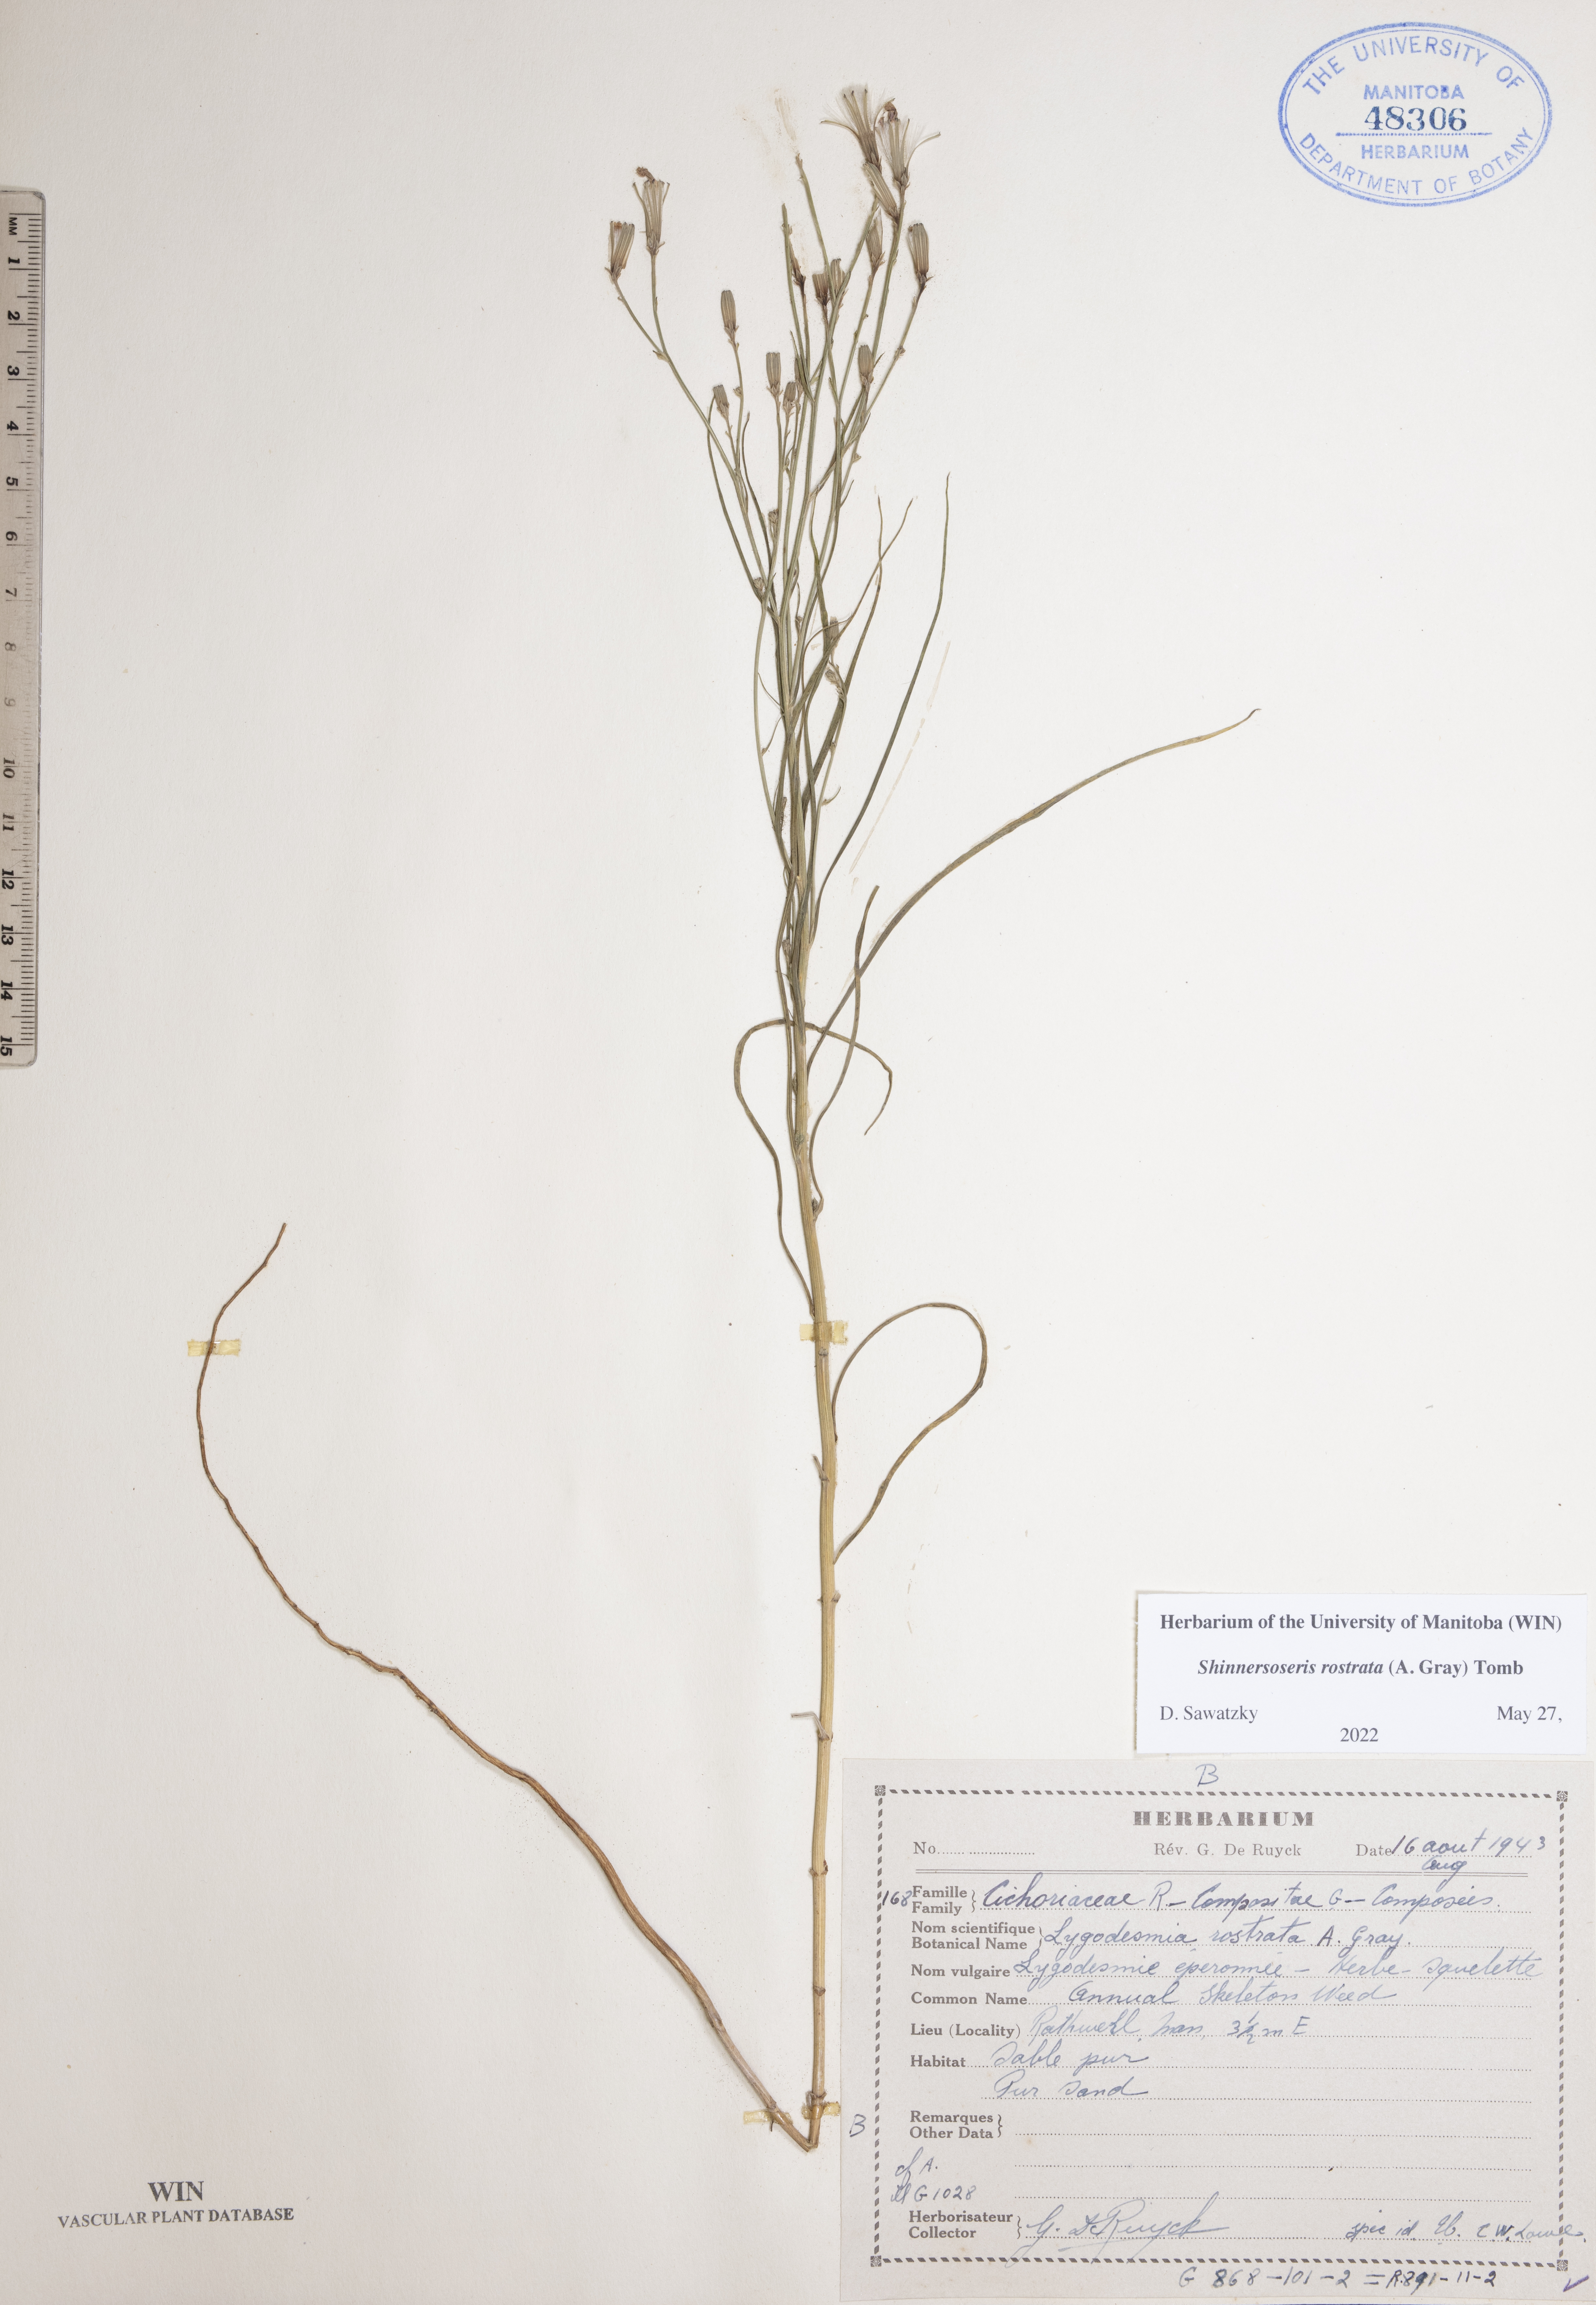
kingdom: Plantae
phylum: Tracheophyta
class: Magnoliopsida
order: Asterales
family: Asteraceae
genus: Shinnersoseris
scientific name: Shinnersoseris rostrata
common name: Annual skeleton-weed
